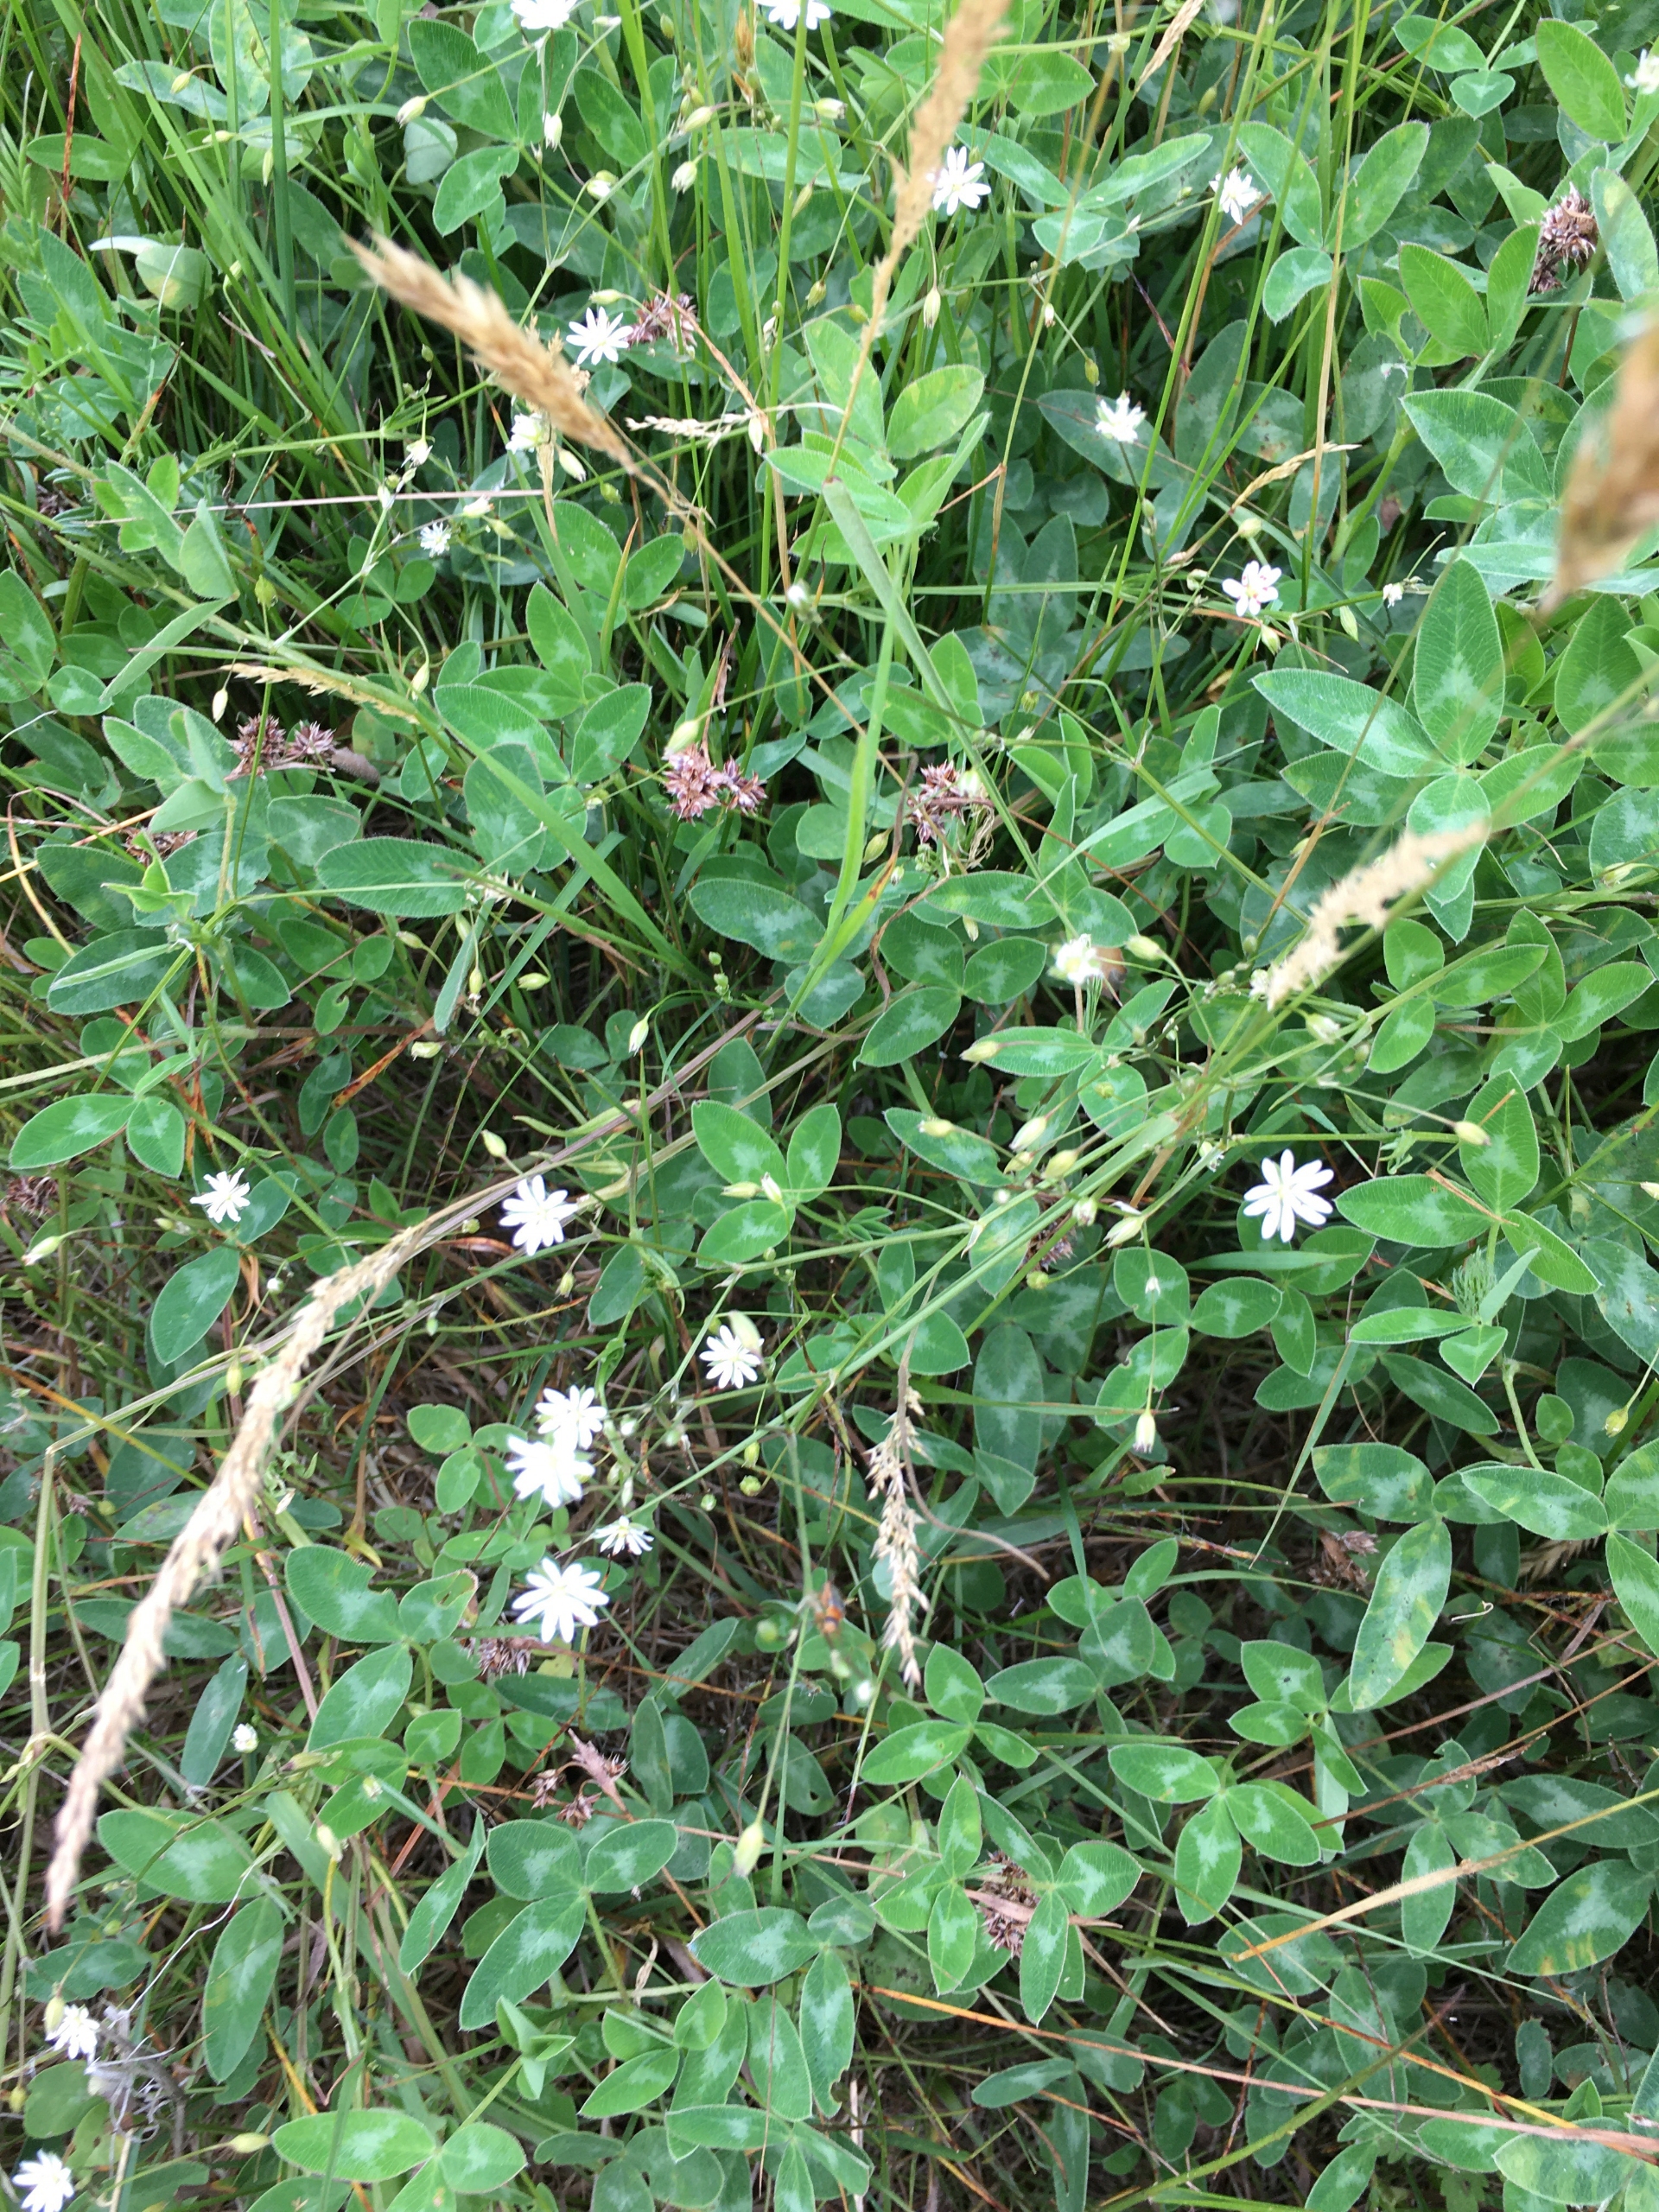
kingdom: Plantae
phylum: Tracheophyta
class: Magnoliopsida
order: Caryophyllales
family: Caryophyllaceae
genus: Stellaria
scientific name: Stellaria graminea
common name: Græsbladet fladstjerne
